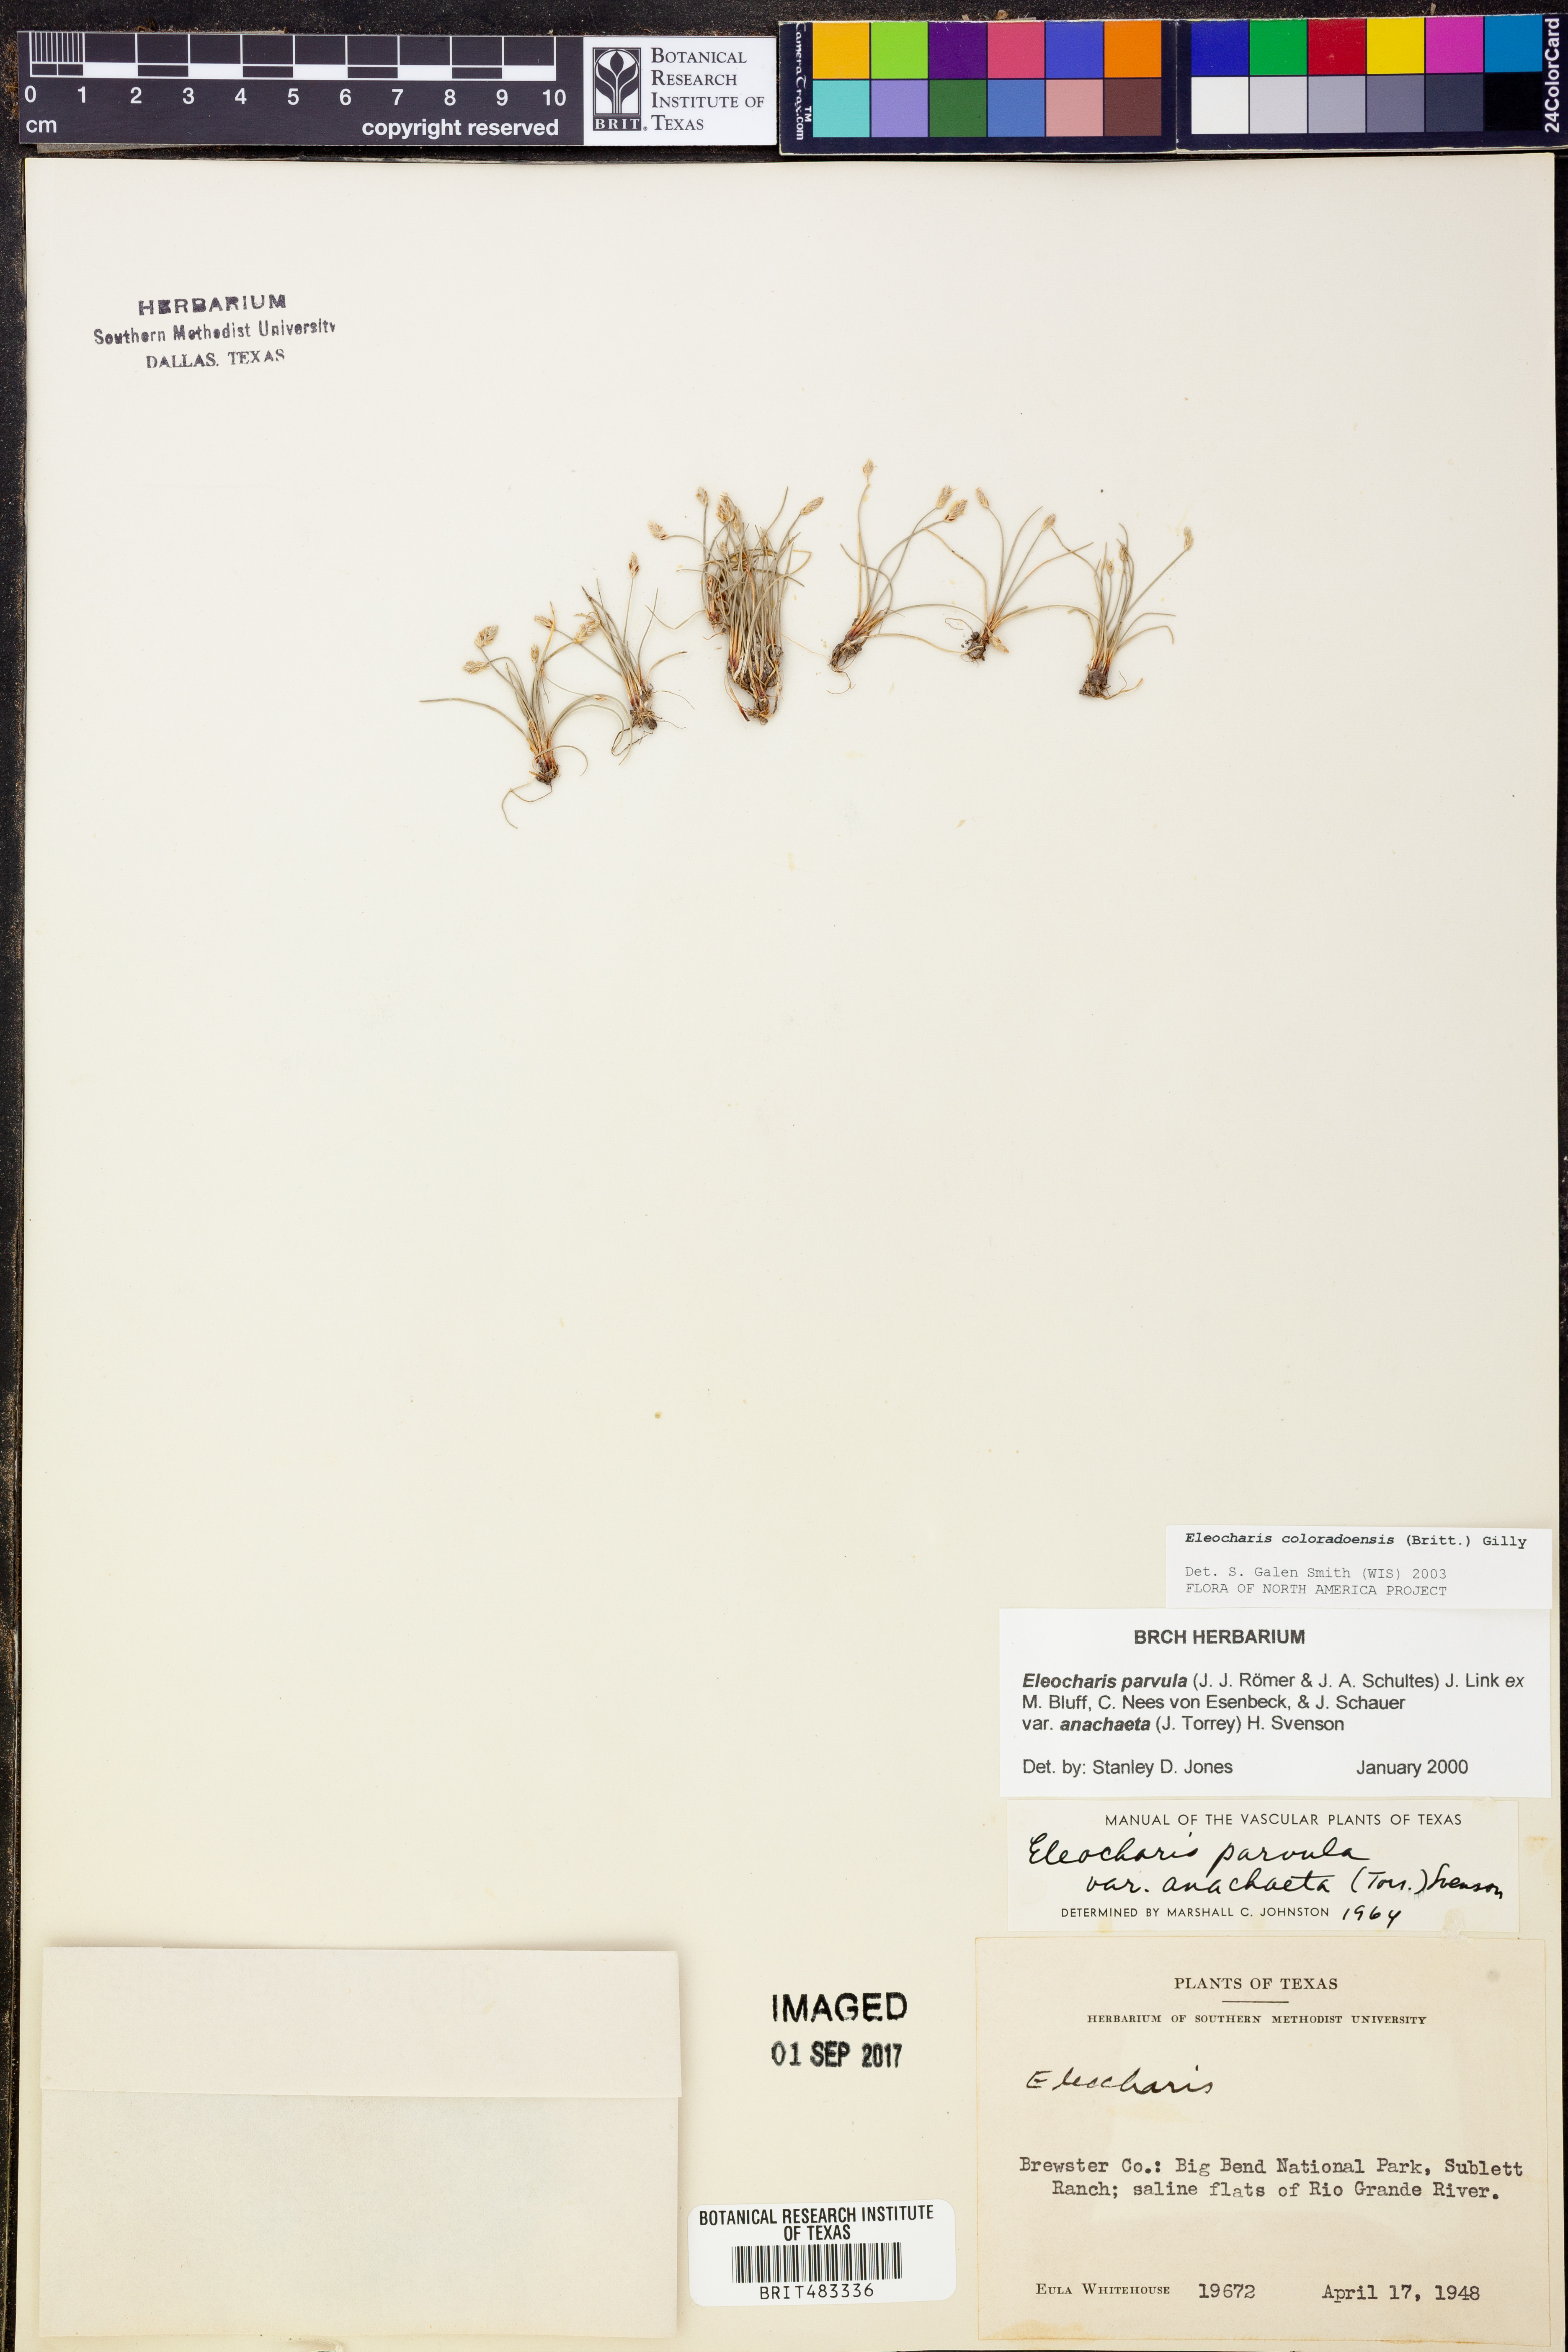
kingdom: Plantae
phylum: Tracheophyta
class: Liliopsida
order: Poales
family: Cyperaceae
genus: Eleocharis
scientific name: Eleocharis coloradoensis
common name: Colorado spikerush
